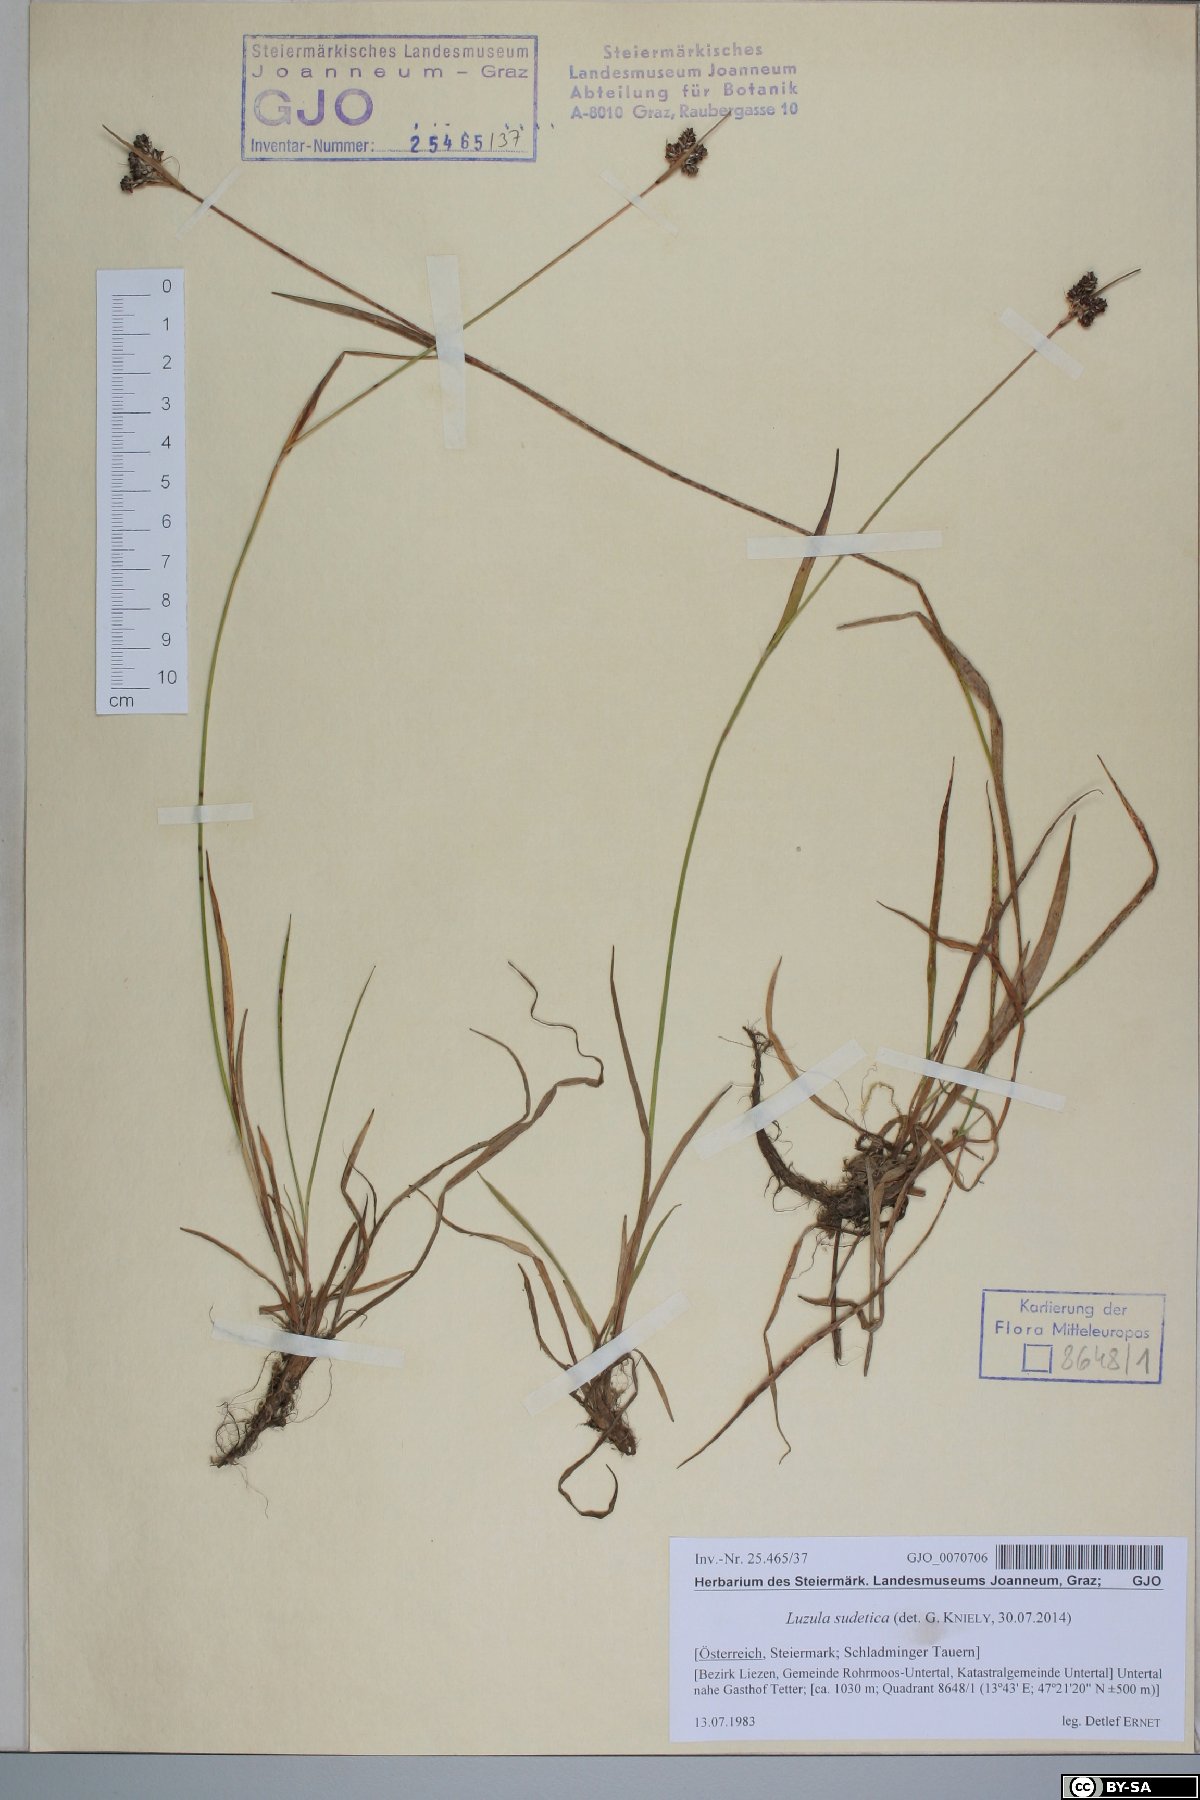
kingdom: Plantae
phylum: Tracheophyta
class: Liliopsida
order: Poales
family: Juncaceae
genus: Luzula
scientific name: Luzula sudetica
